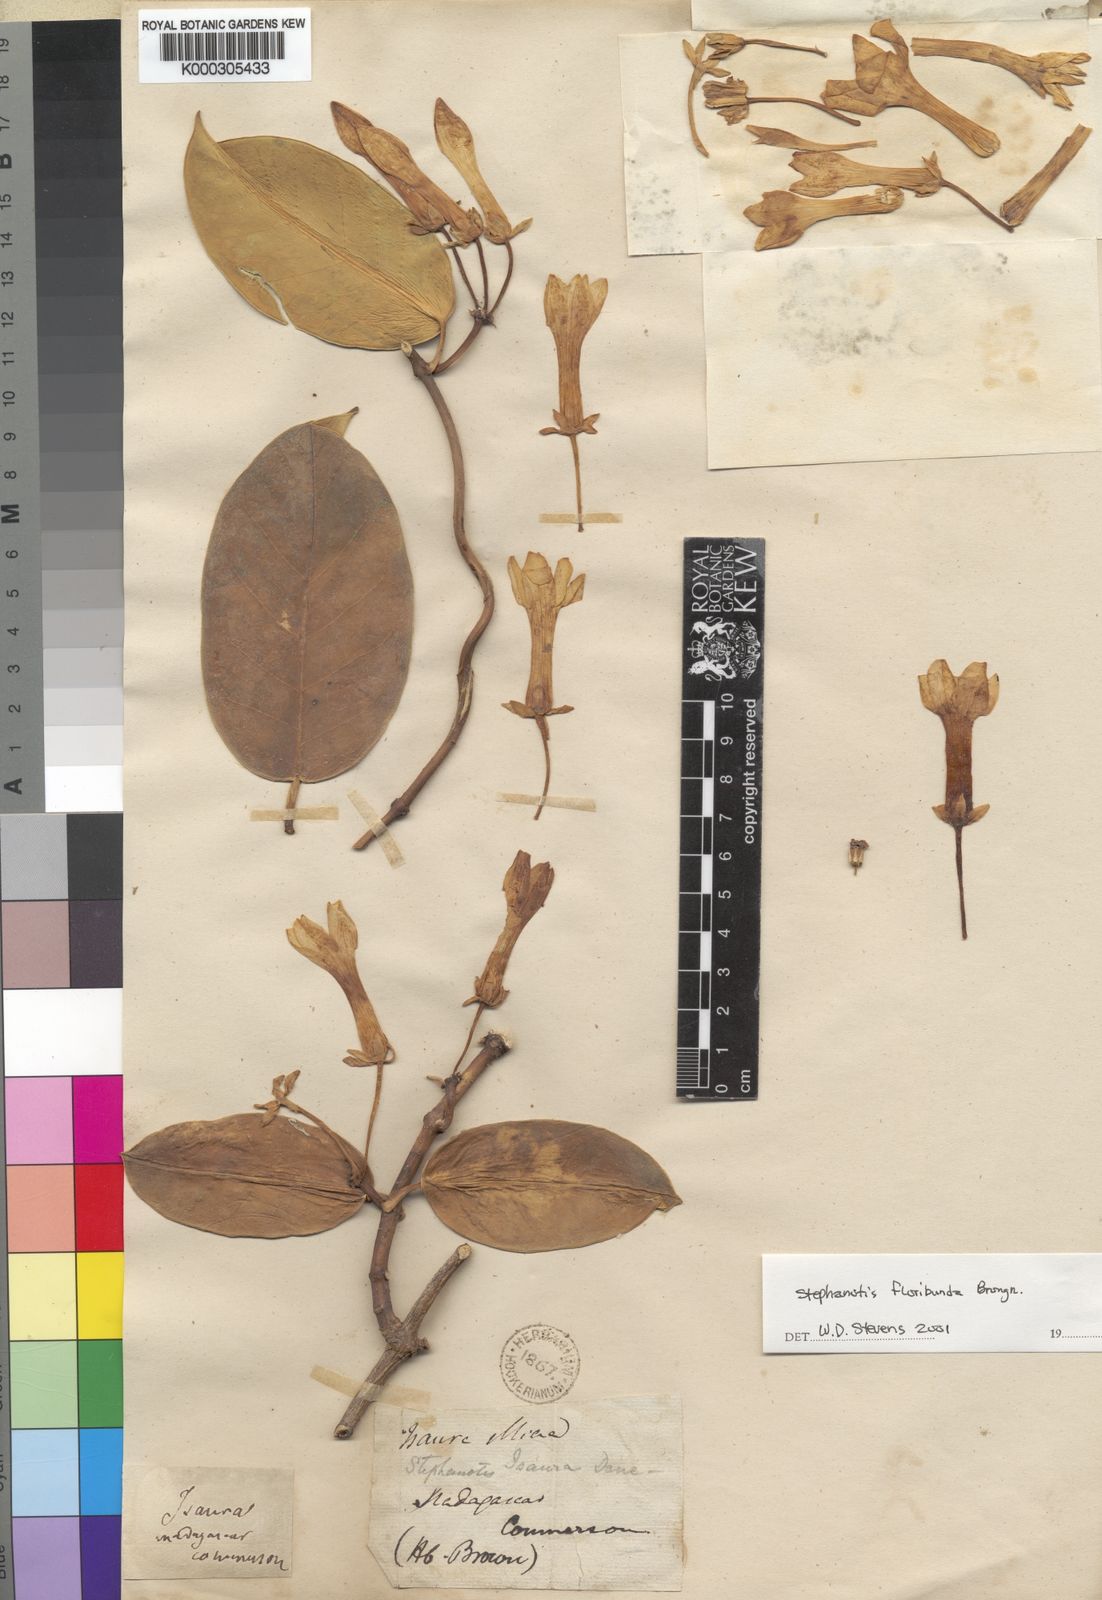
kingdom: Plantae
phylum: Tracheophyta
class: Magnoliopsida
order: Gentianales
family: Apocynaceae
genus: Stephanotis
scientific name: Stephanotis
